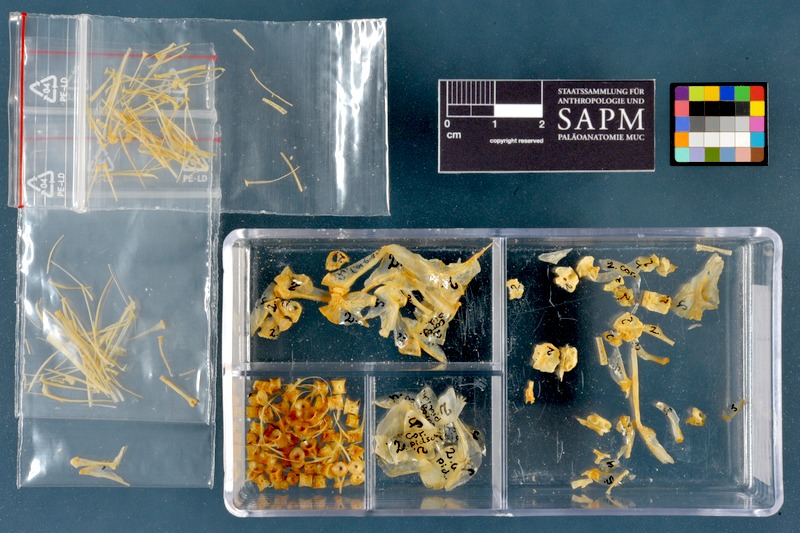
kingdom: Animalia
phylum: Chordata
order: Salmoniformes
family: Salmonidae
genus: Coregonus
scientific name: Coregonus pidschian
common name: Bottom whitefish
